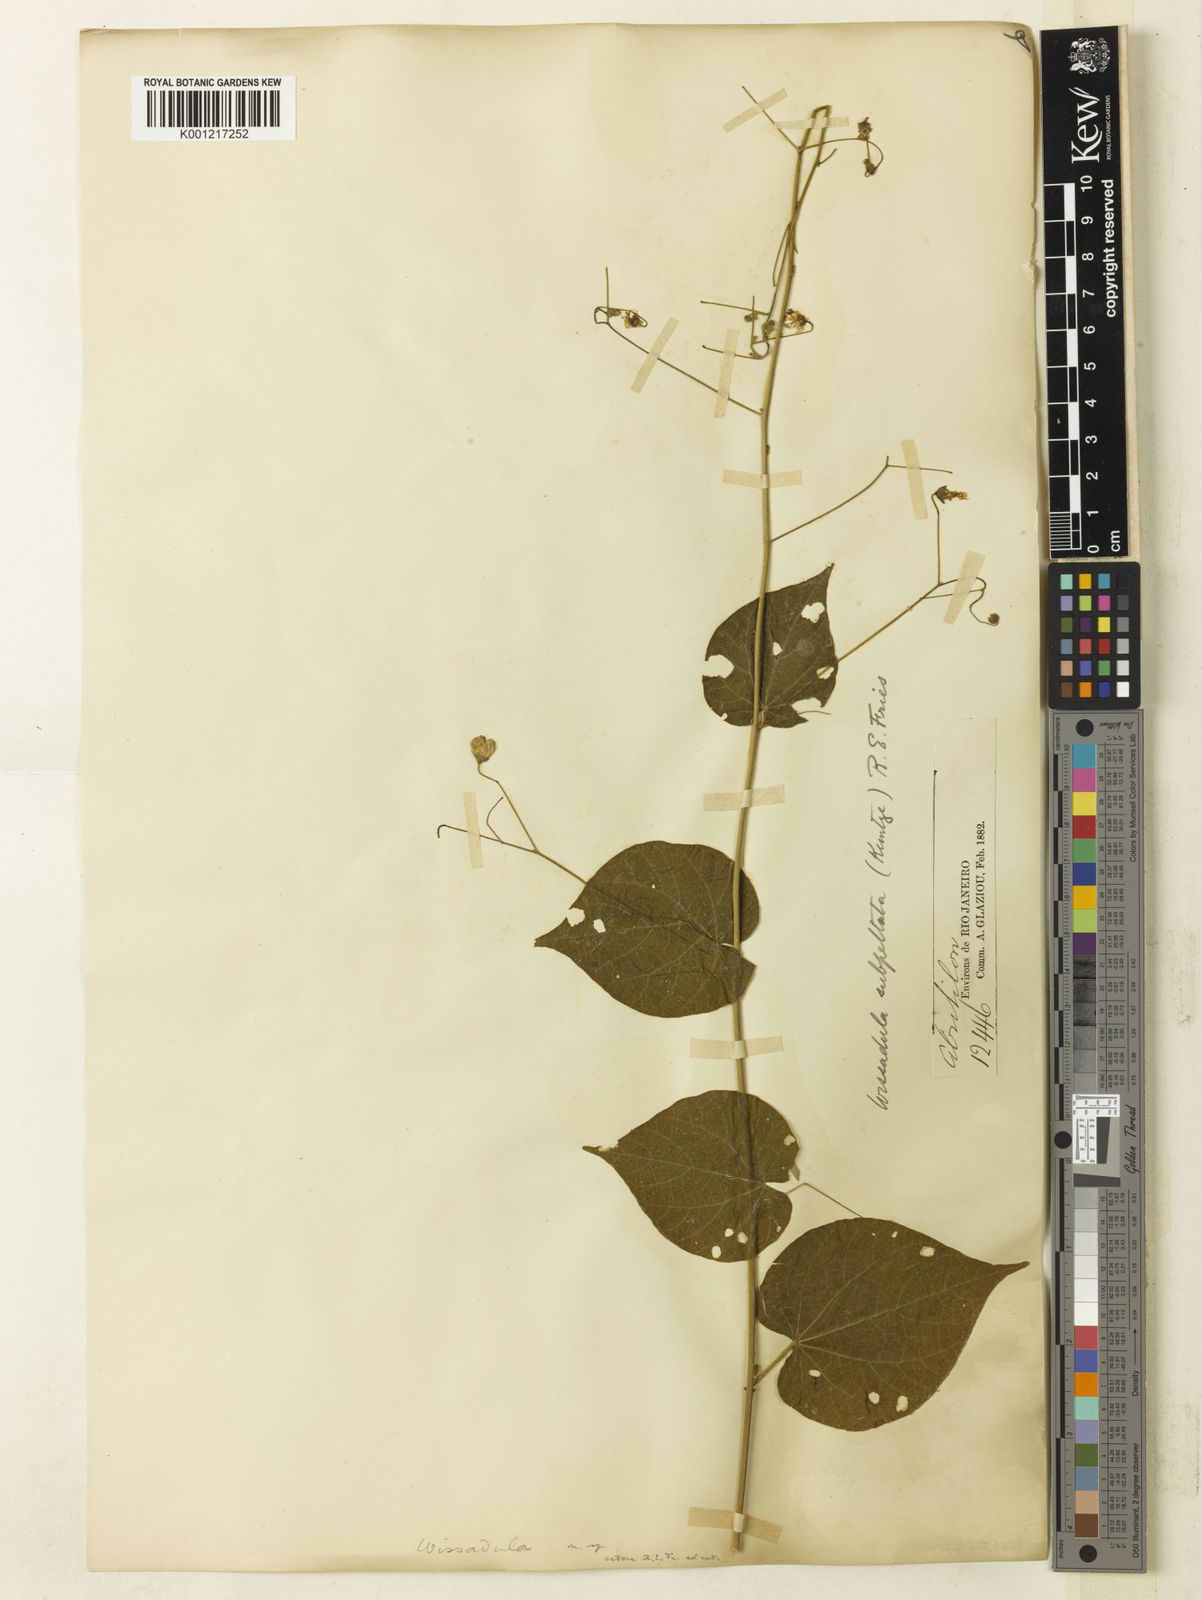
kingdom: Plantae
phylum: Tracheophyta
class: Magnoliopsida
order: Malvales
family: Malvaceae
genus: Wissadula
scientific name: Wissadula subpeltata
